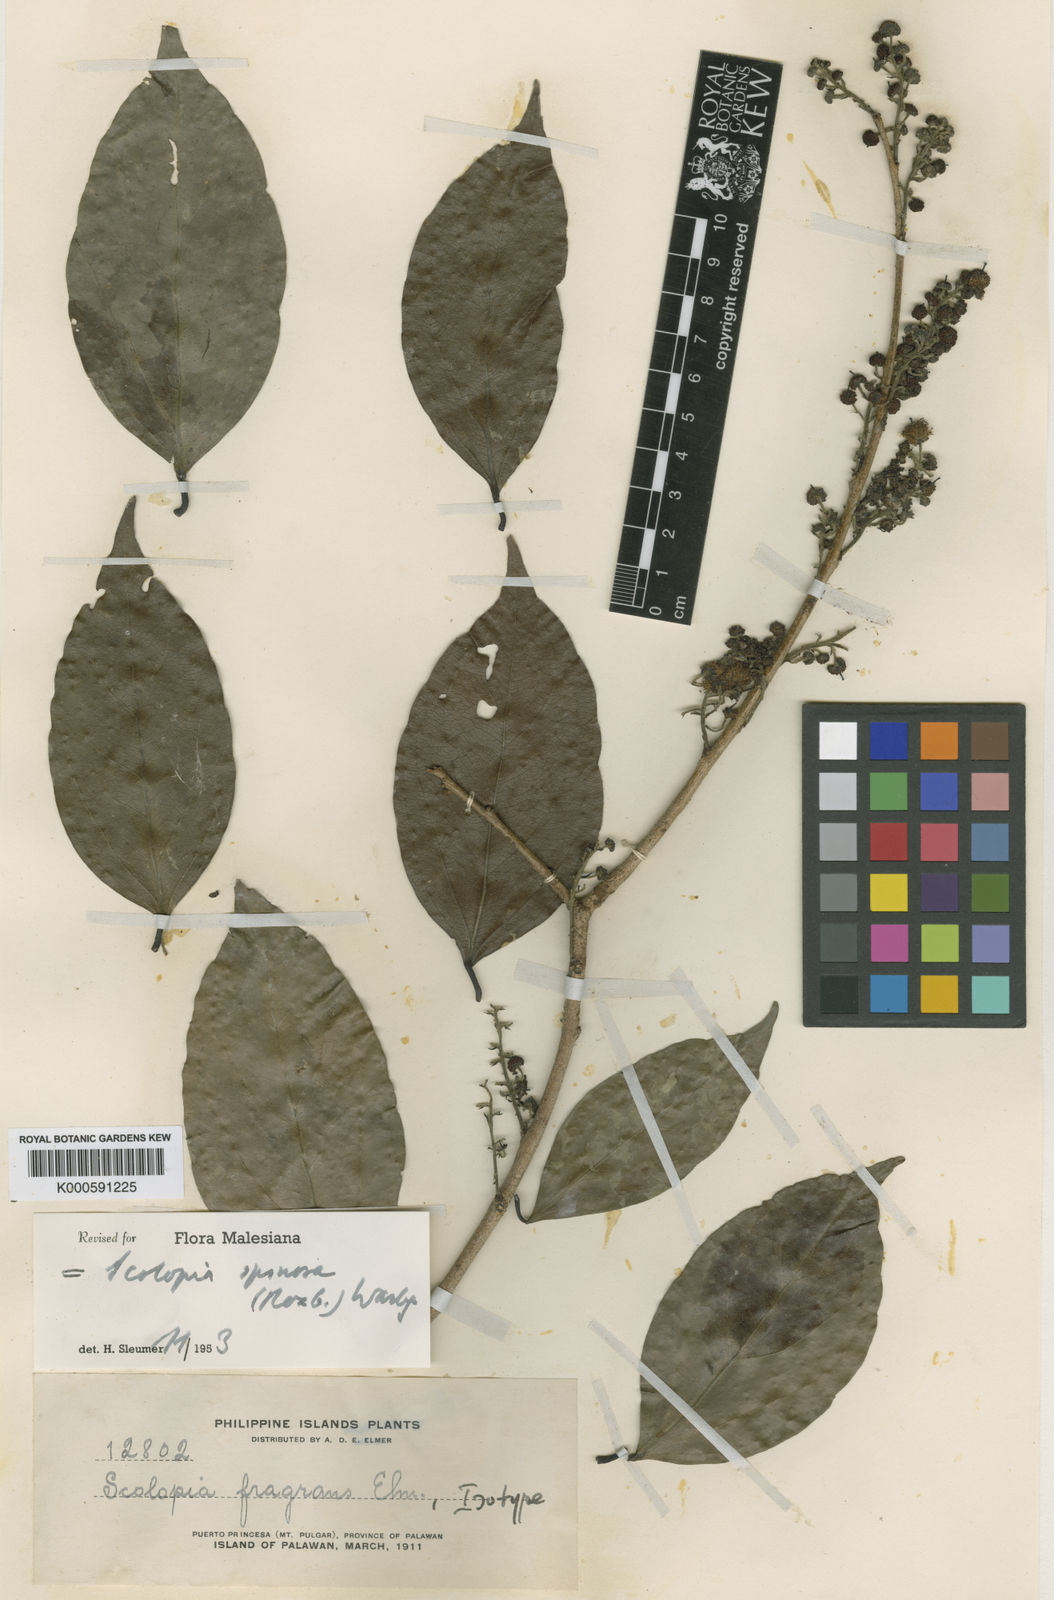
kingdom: Plantae
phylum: Tracheophyta
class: Magnoliopsida
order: Malpighiales
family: Salicaceae
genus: Scolopia
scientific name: Scolopia spinosa
